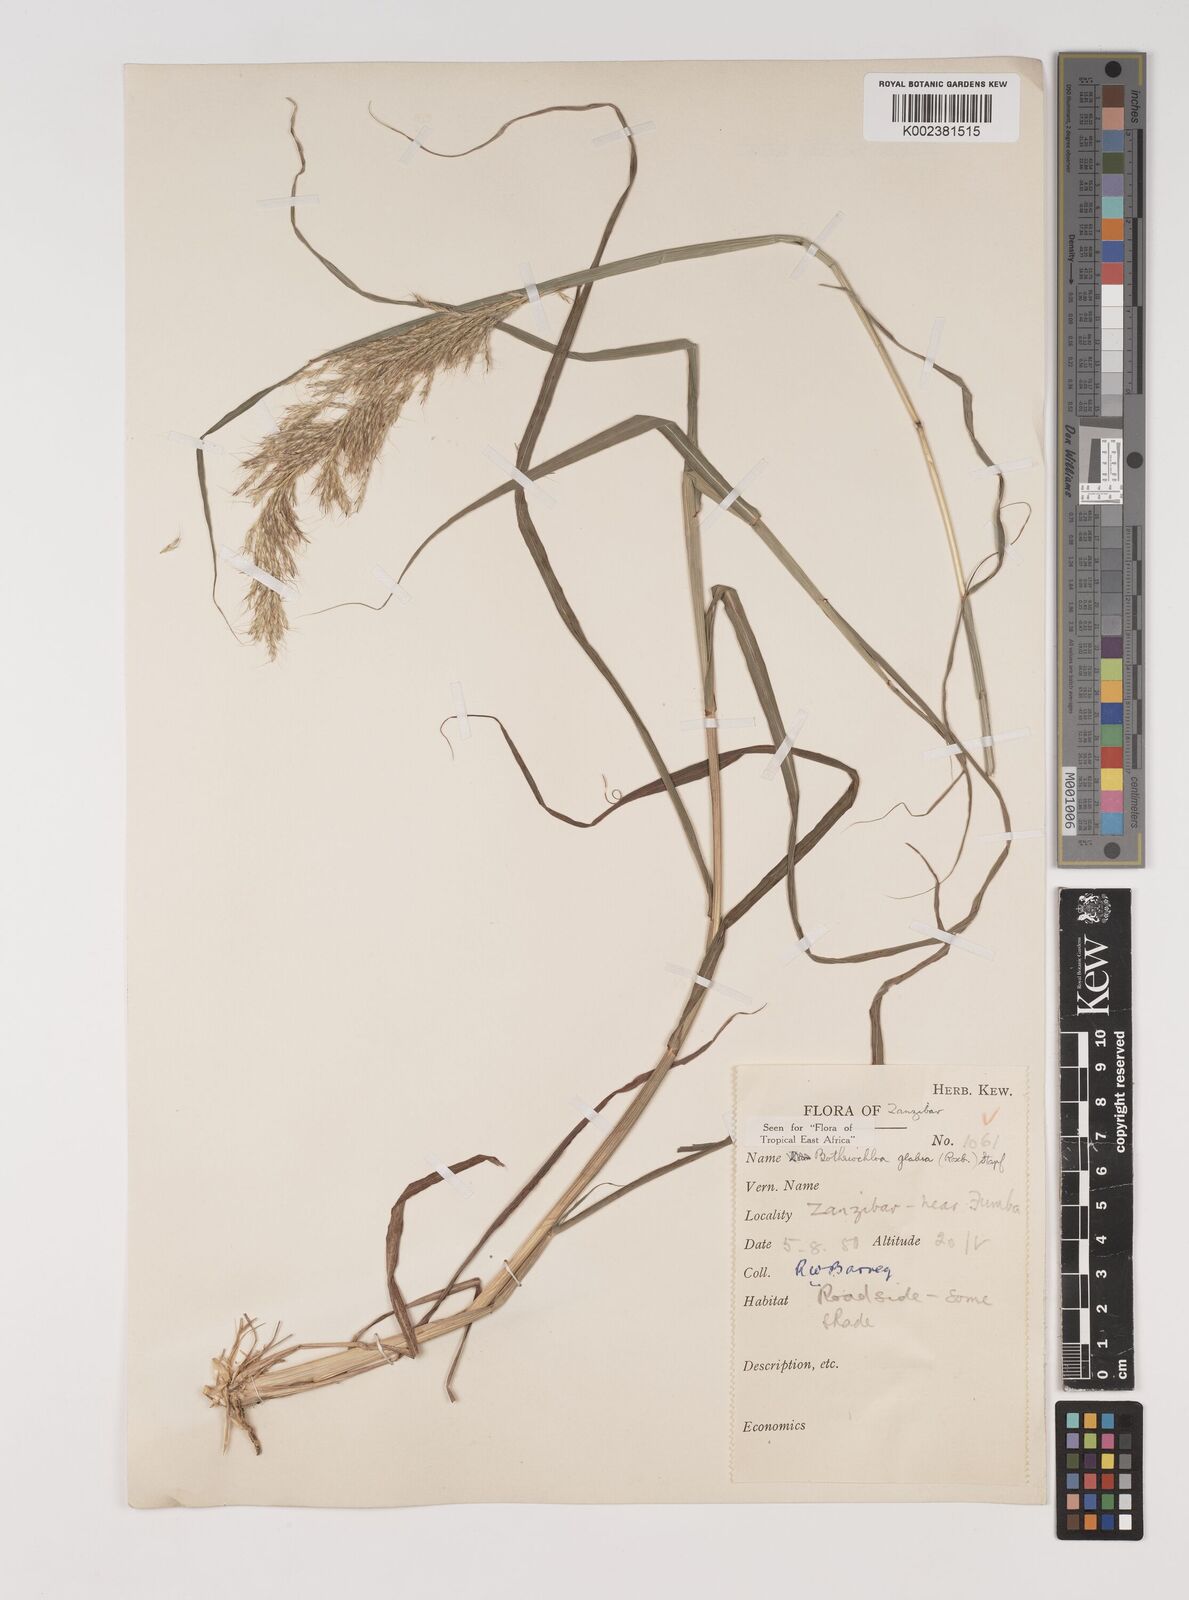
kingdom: Plantae
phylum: Tracheophyta
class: Liliopsida
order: Poales
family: Poaceae
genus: Bothriochloa
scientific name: Bothriochloa
